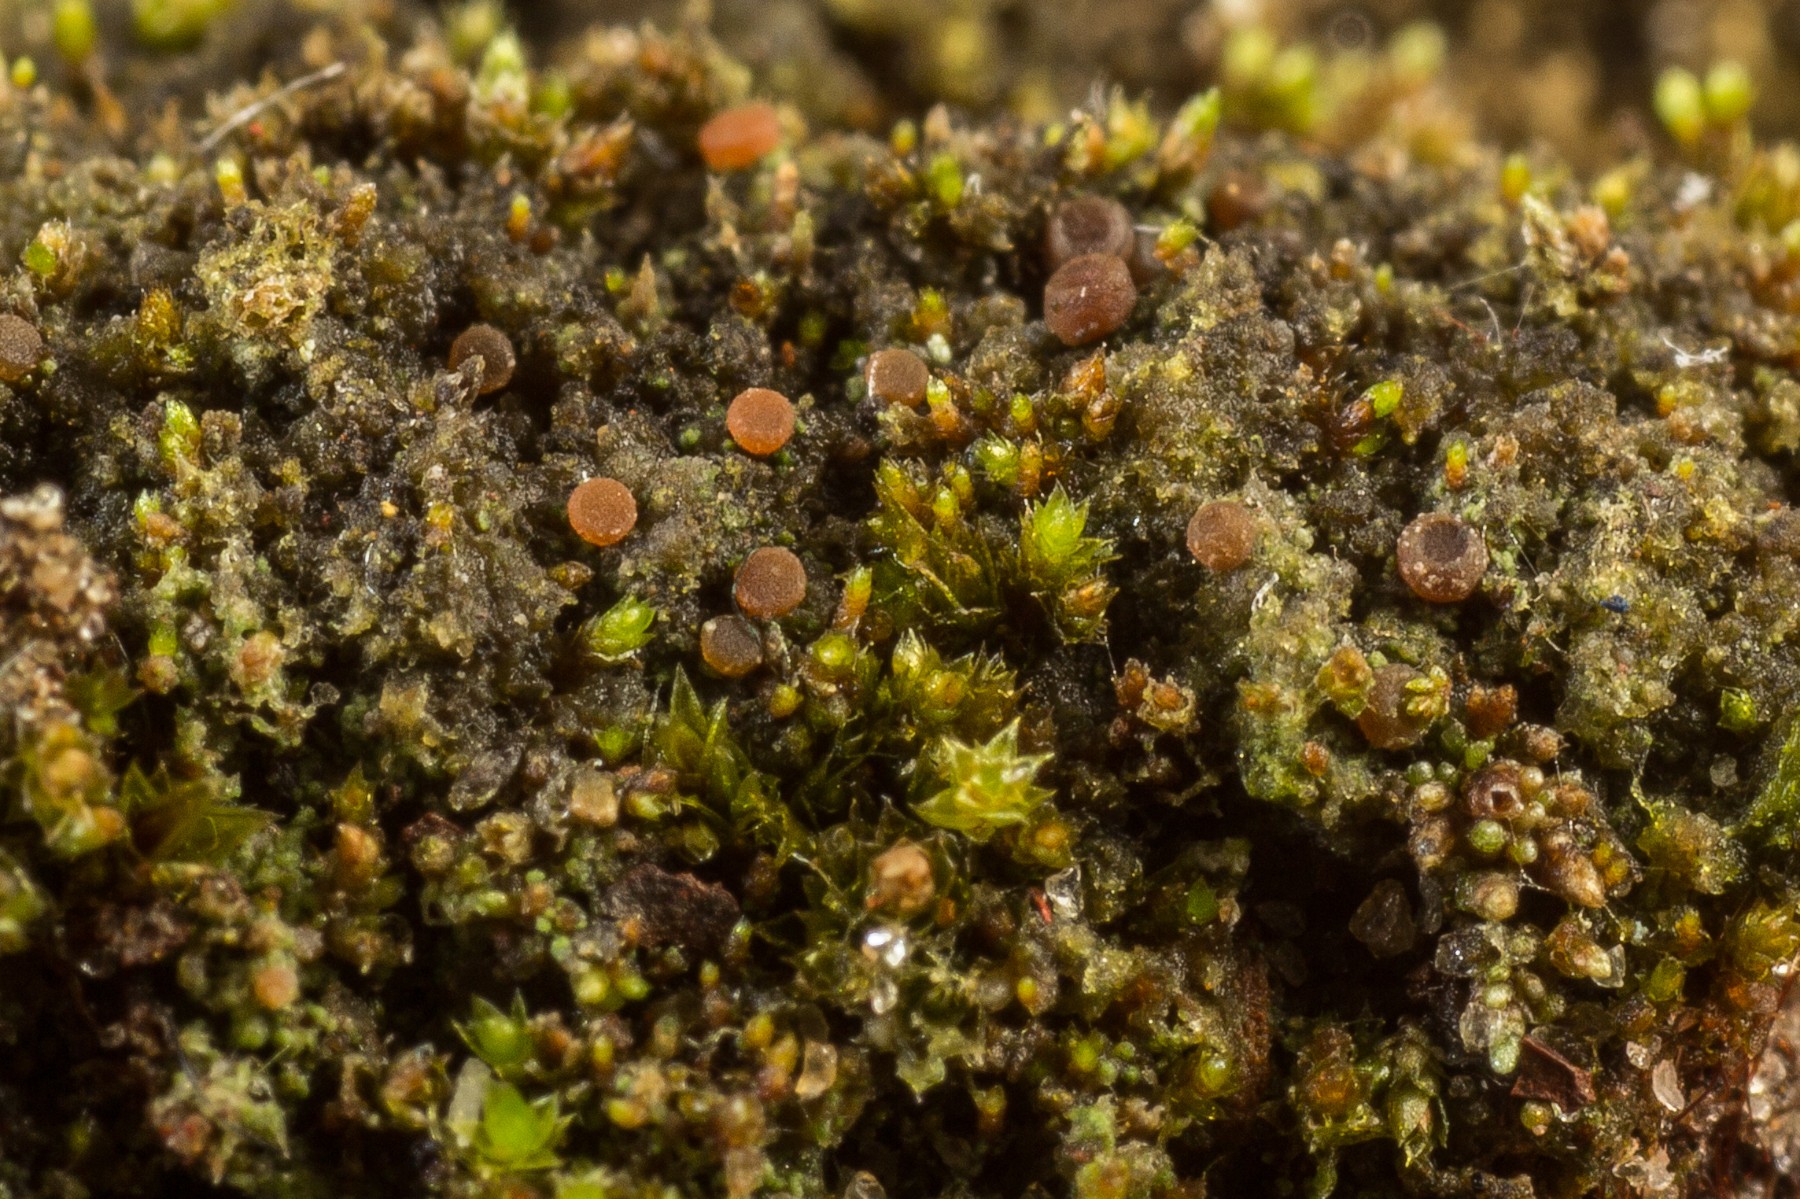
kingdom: Fungi
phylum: Ascomycota
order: Thelocarpales
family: Thelocarpaceae
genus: Sarcosagium
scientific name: Sarcosagium campestre
